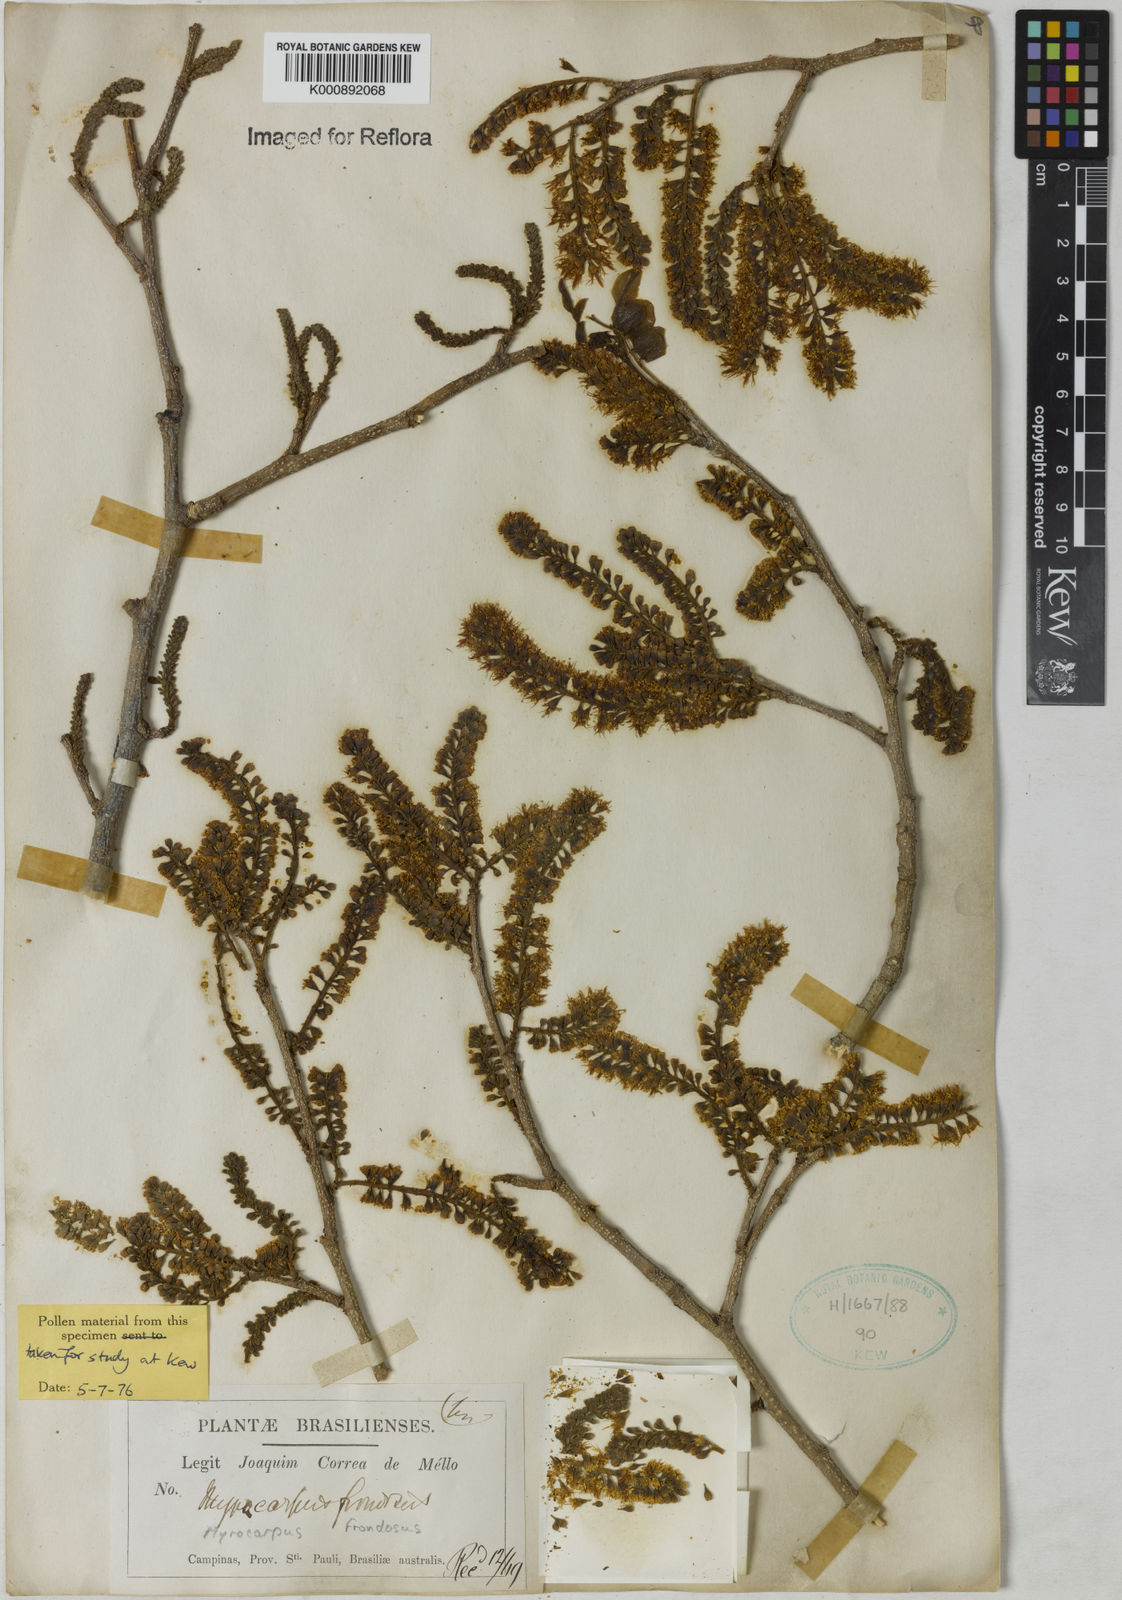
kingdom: Plantae
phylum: Tracheophyta
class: Magnoliopsida
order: Fabales
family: Fabaceae
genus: Myrocarpus
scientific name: Myrocarpus
